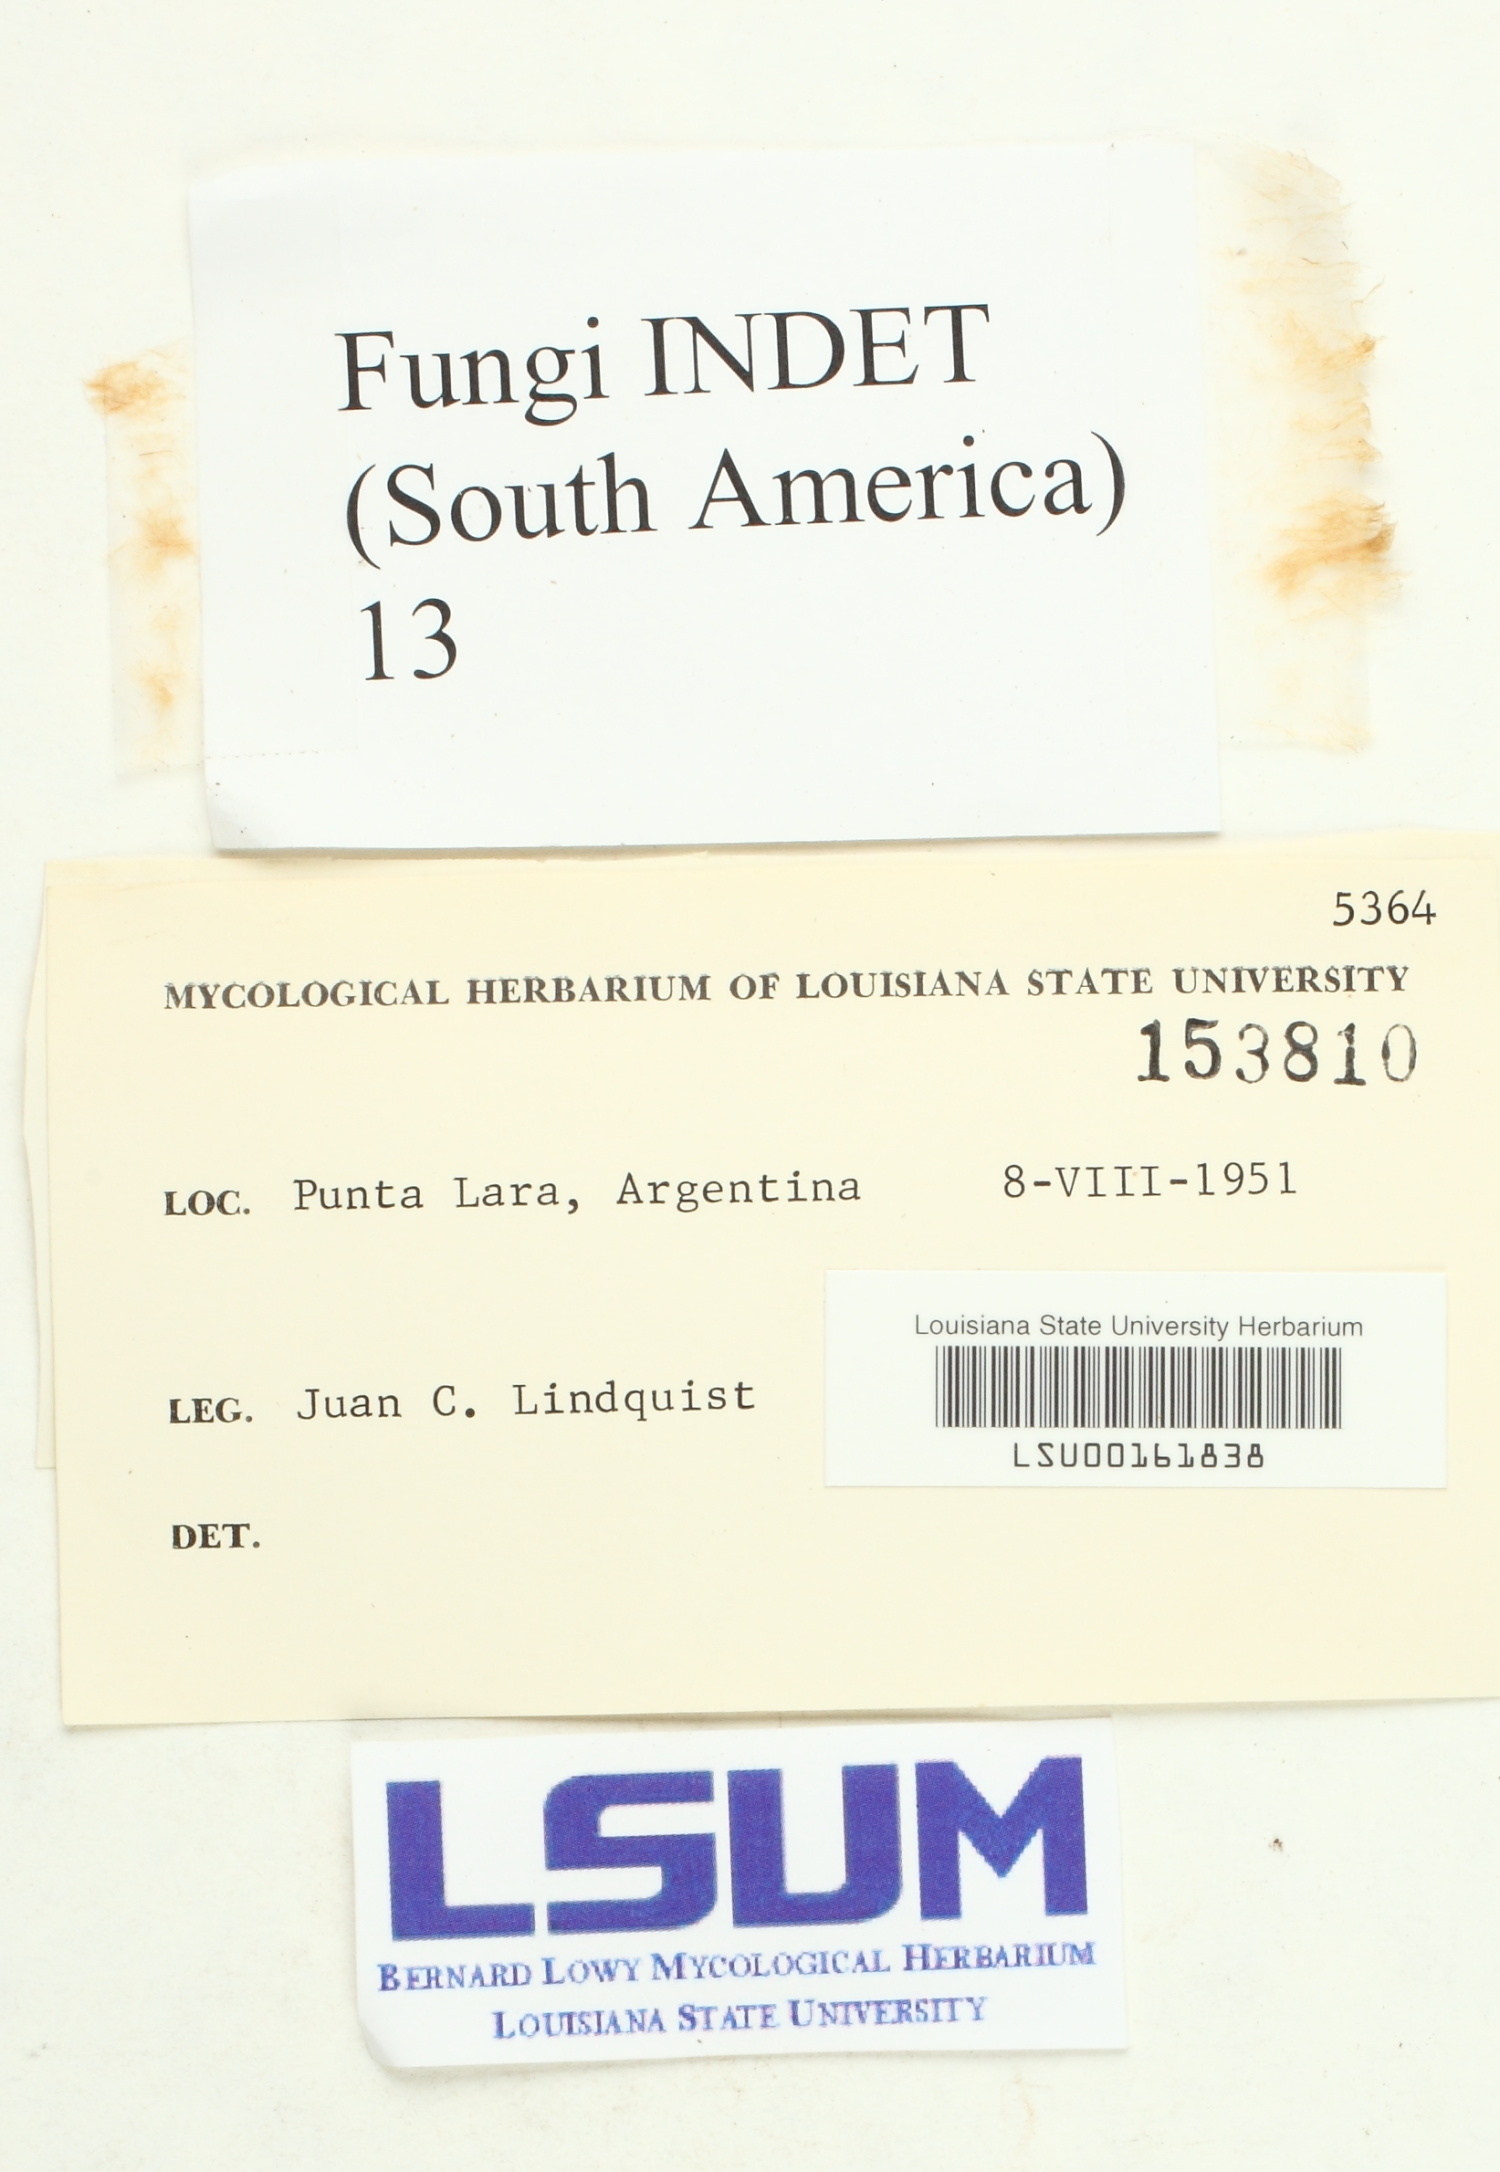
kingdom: Fungi
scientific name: Fungi
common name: Fungi
